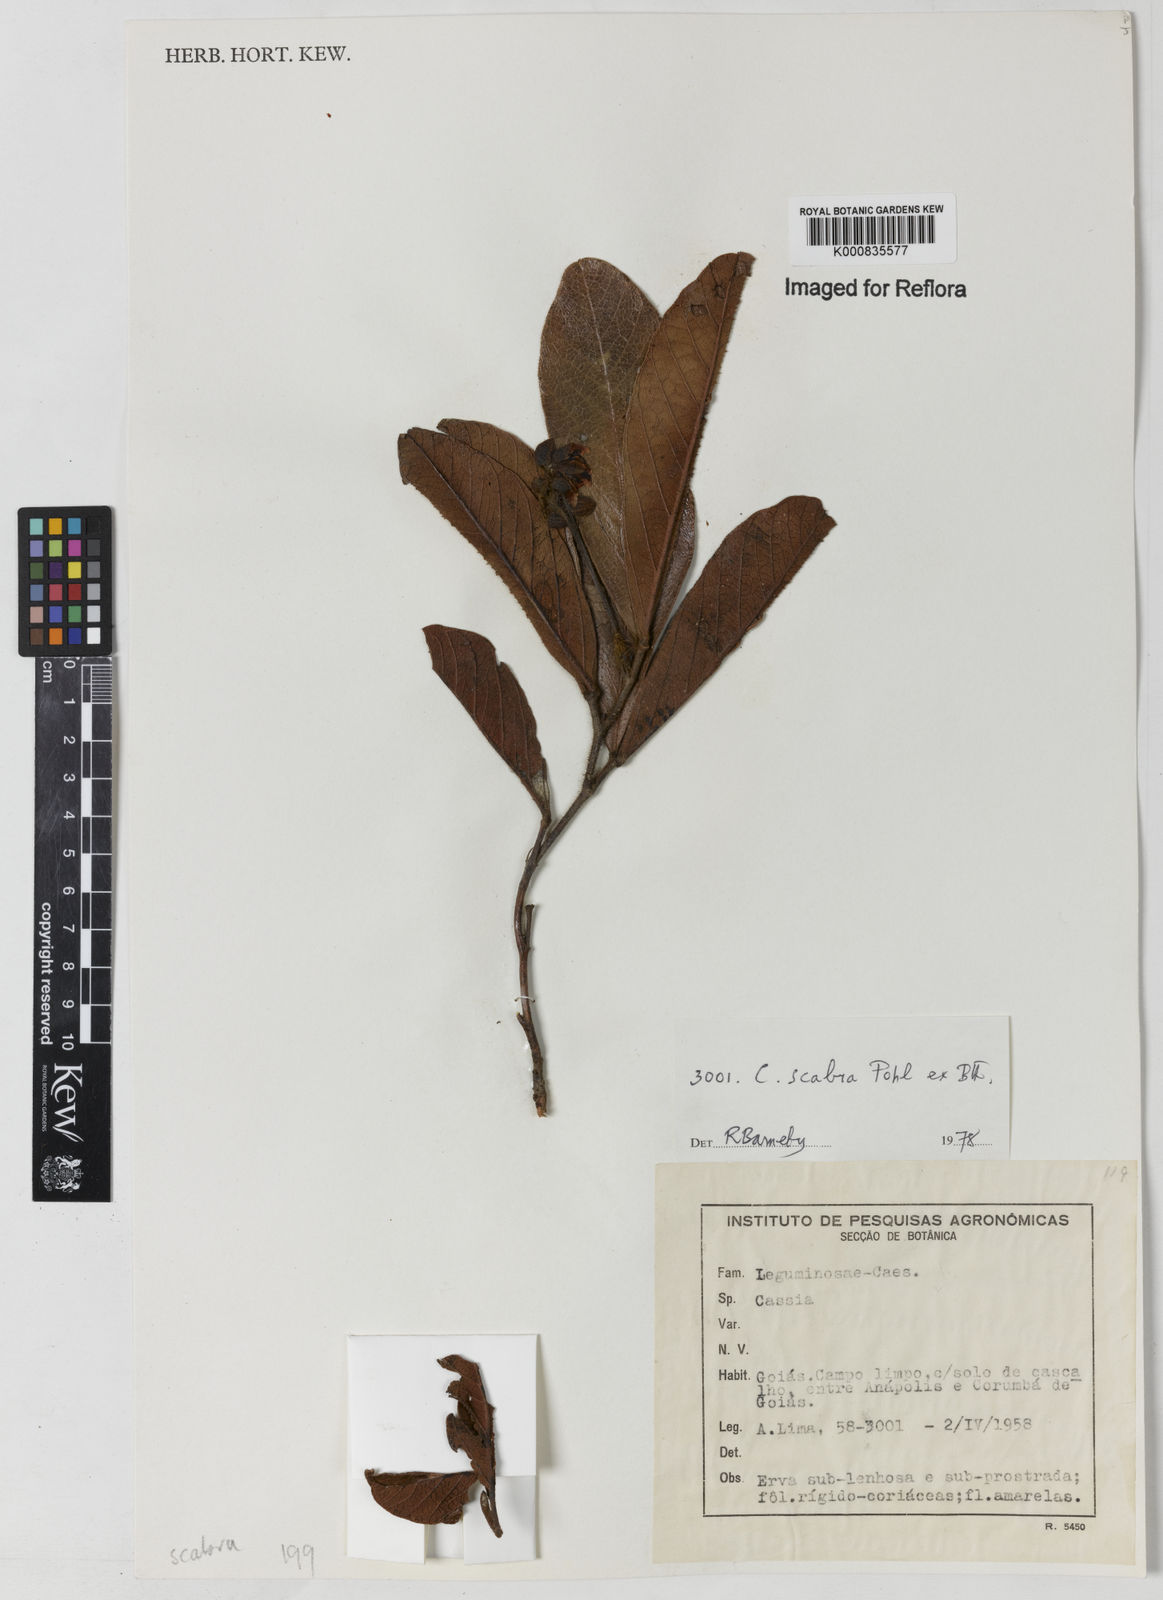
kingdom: Plantae
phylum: Tracheophyta
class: Magnoliopsida
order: Fabales
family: Fabaceae
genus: Chamaecrista
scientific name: Chamaecrista scabra
